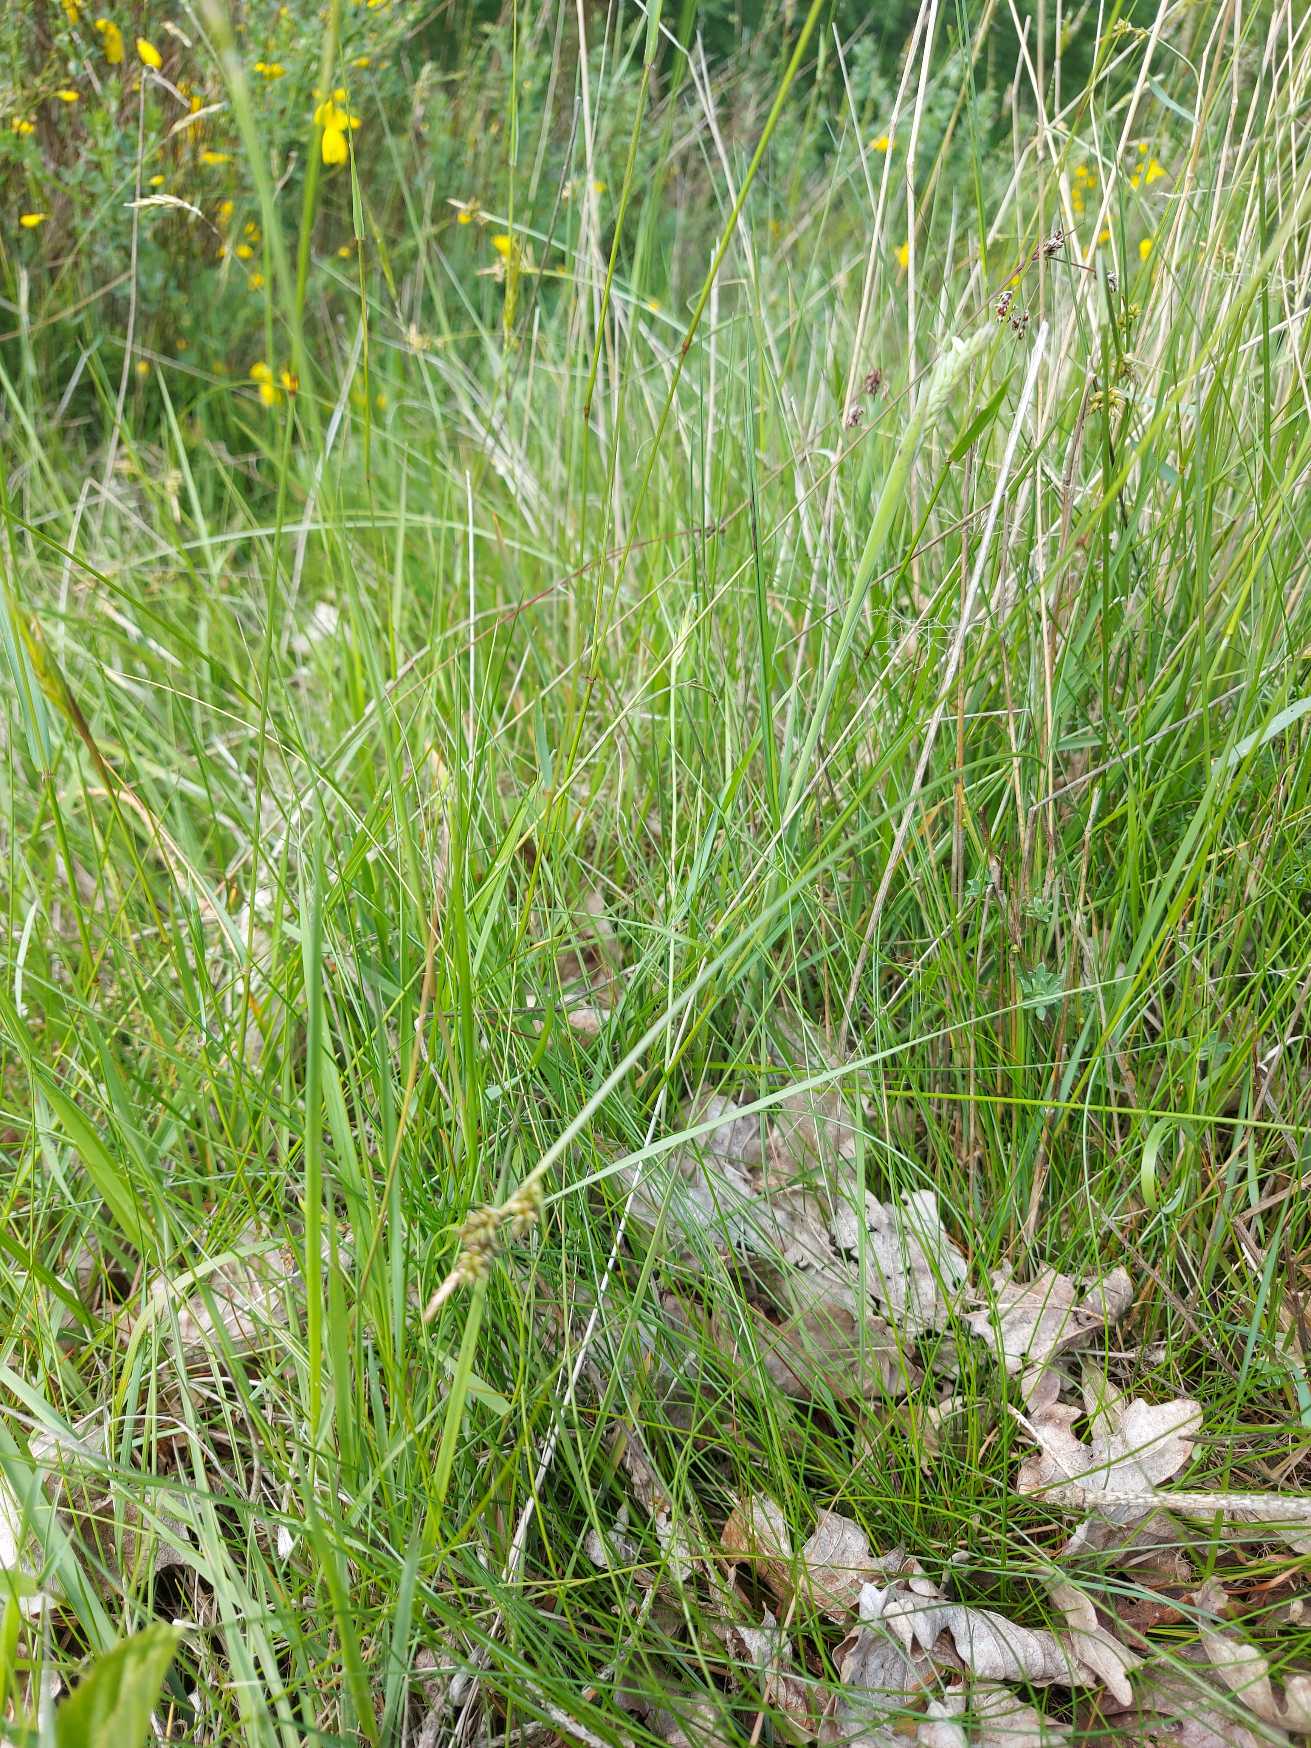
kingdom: Plantae
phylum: Tracheophyta
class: Liliopsida
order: Poales
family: Cyperaceae
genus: Carex
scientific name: Carex pilulifera
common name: Pille-star
